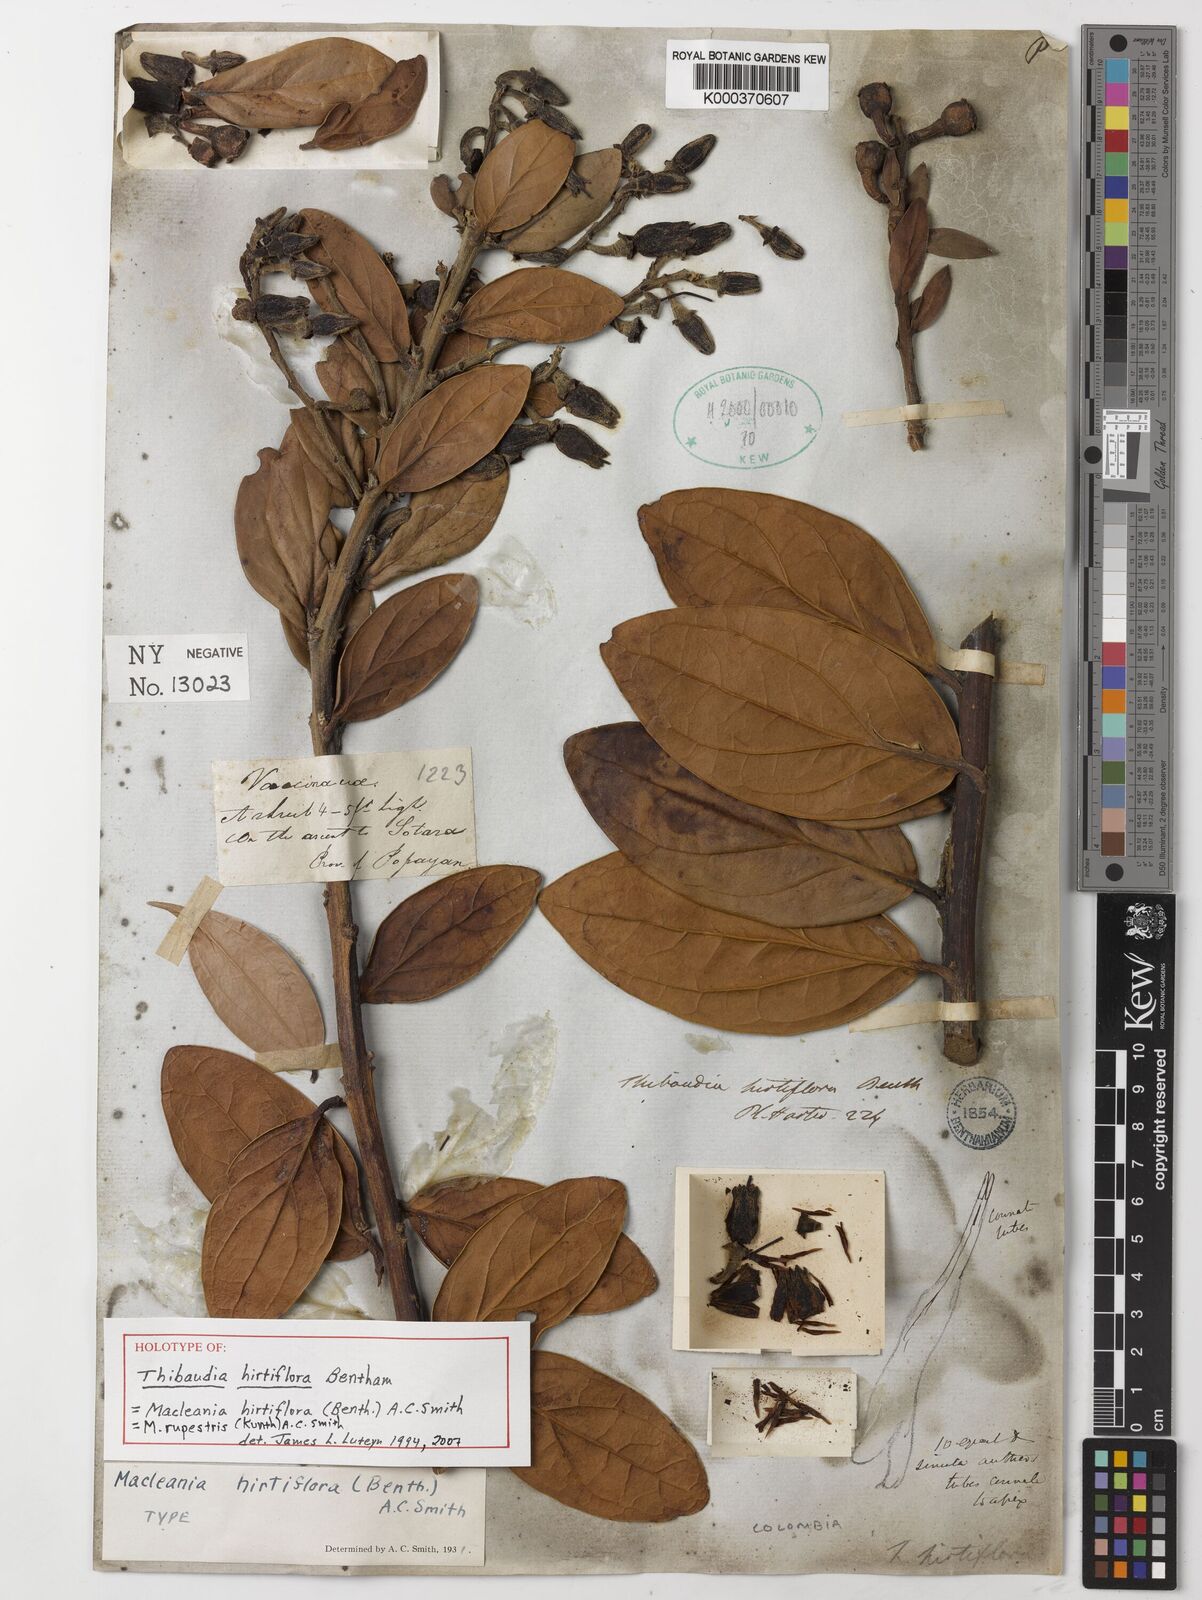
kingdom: Plantae
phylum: Tracheophyta
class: Magnoliopsida
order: Ericales
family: Ericaceae
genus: Macleania
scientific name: Macleania rupestris
